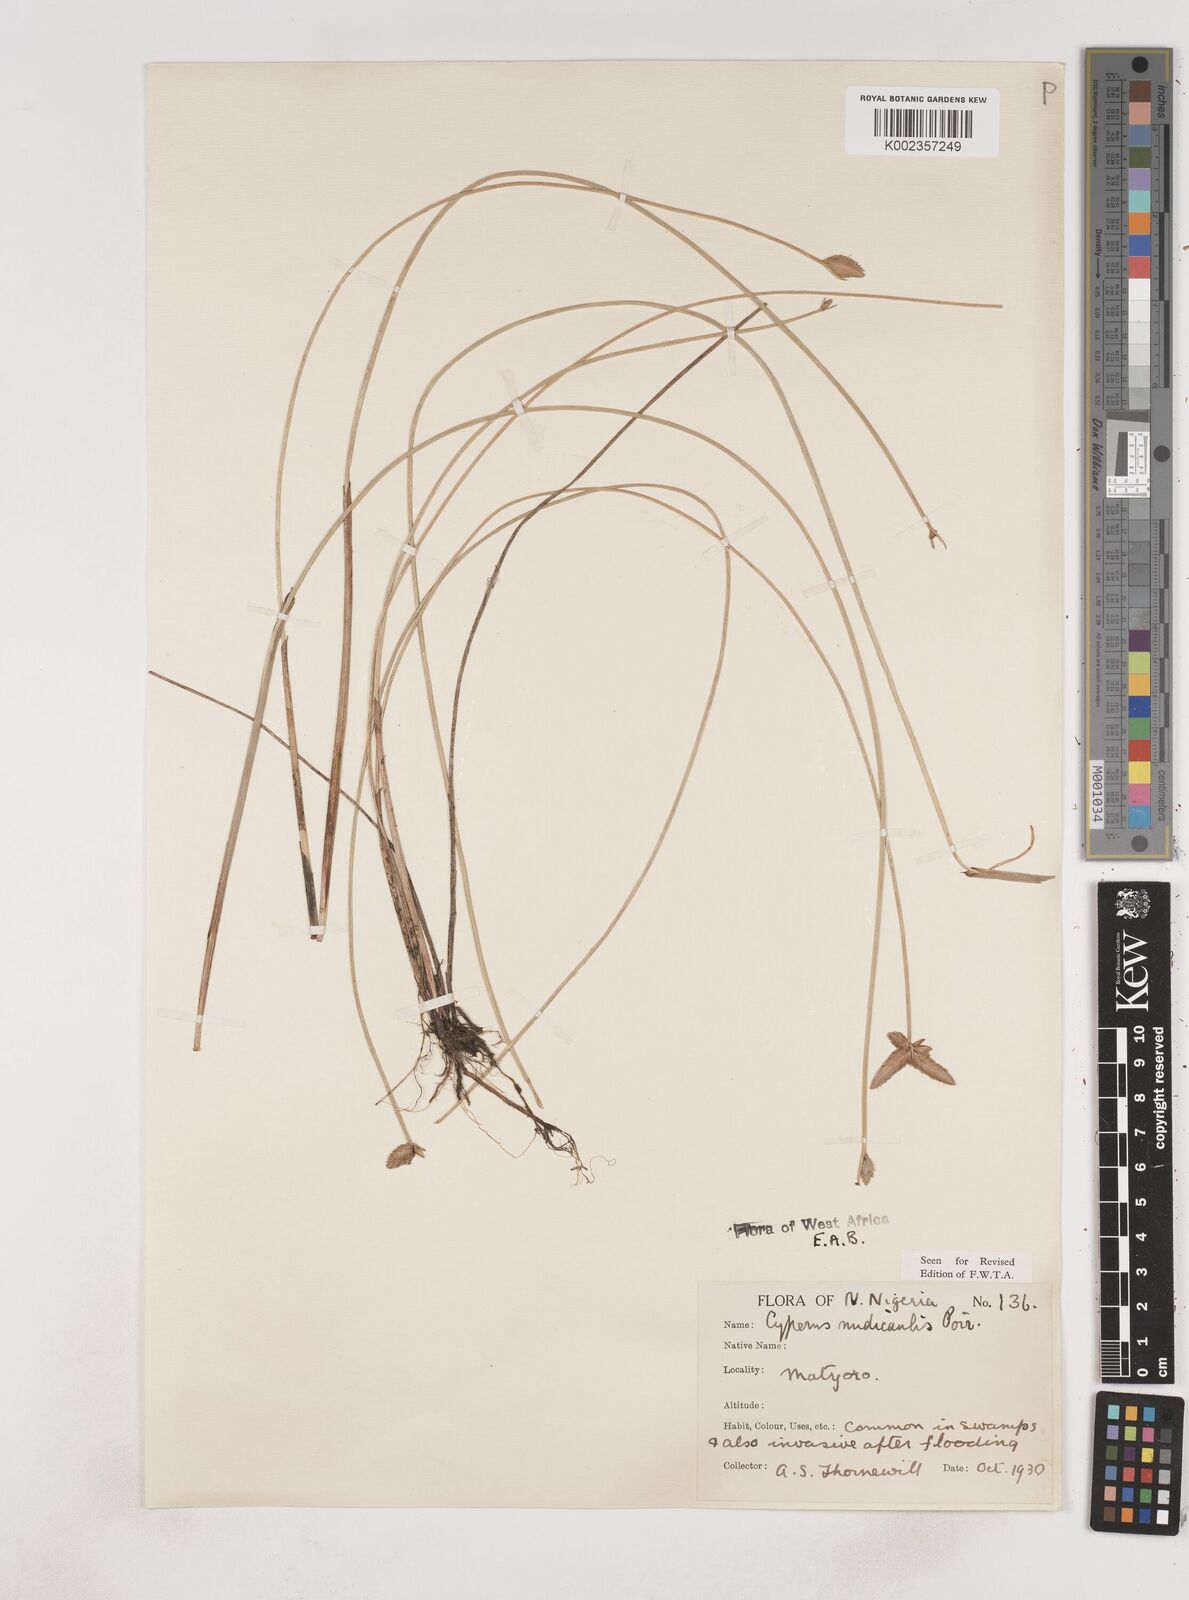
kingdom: Plantae
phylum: Tracheophyta
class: Liliopsida
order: Poales
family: Cyperaceae
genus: Cyperus
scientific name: Cyperus pectinatus
